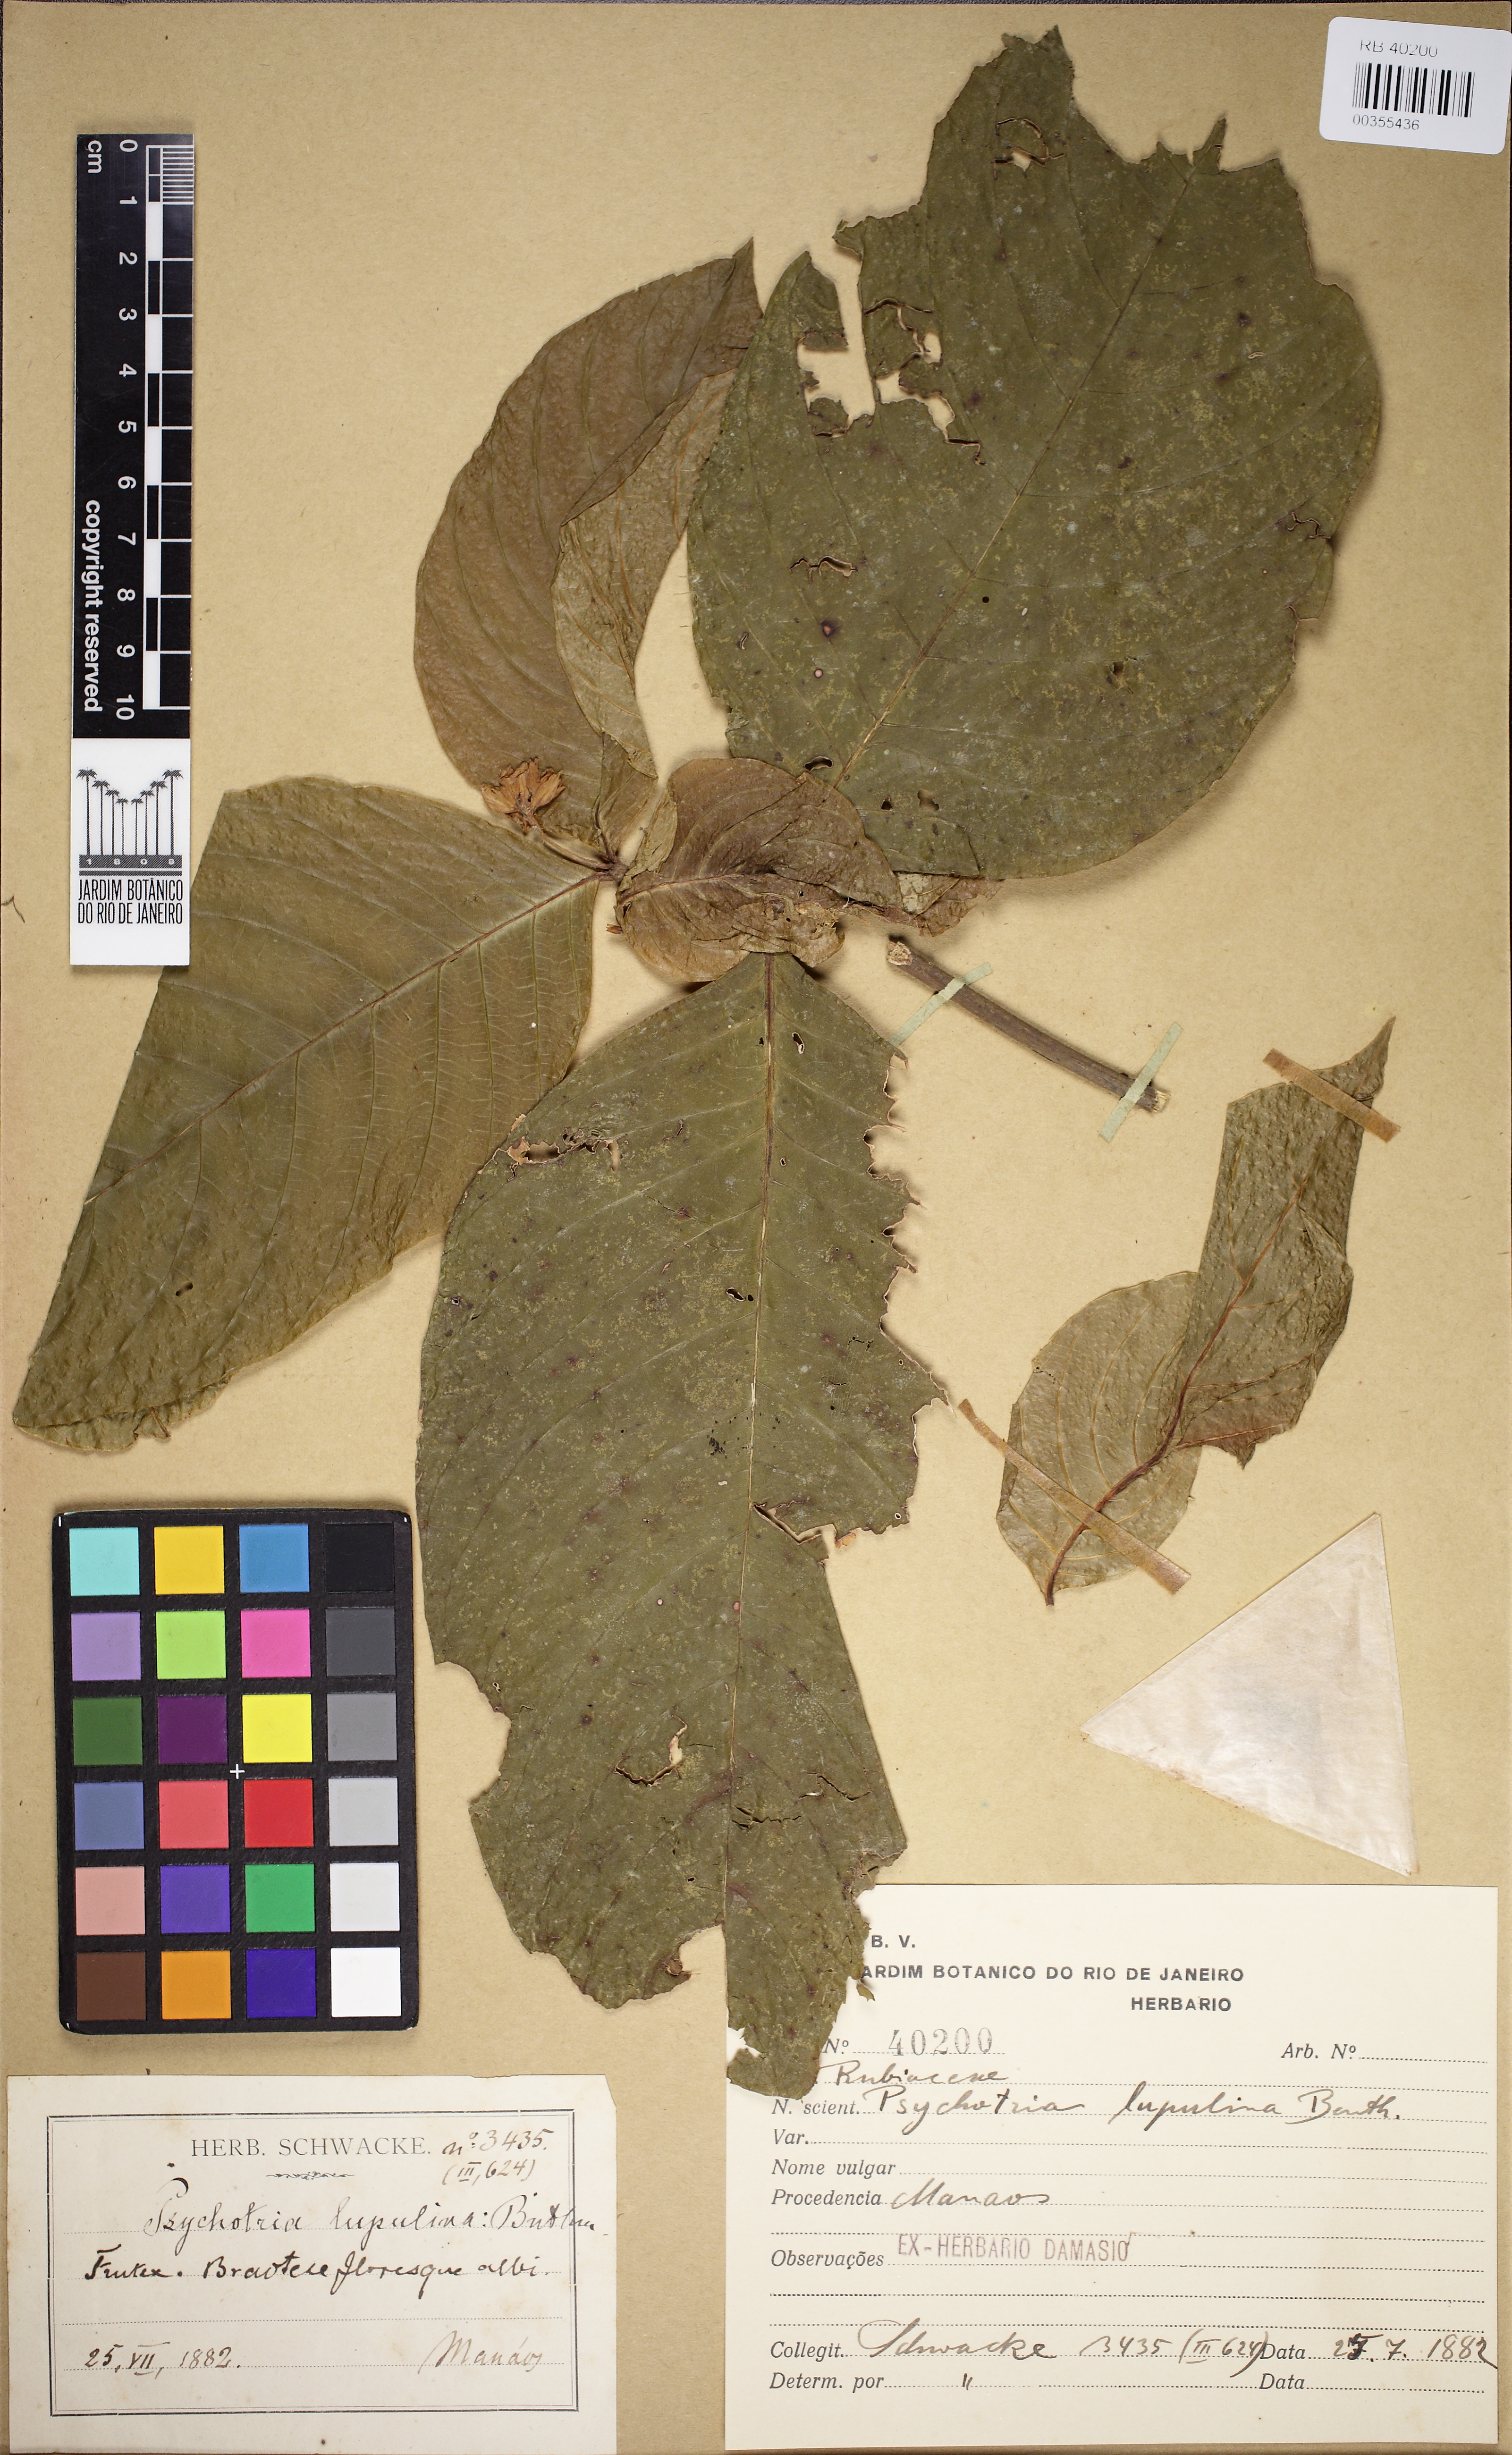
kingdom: Plantae
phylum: Tracheophyta
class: Magnoliopsida
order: Gentianales
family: Rubiaceae
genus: Palicourea
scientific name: Palicourea justiciifolia
